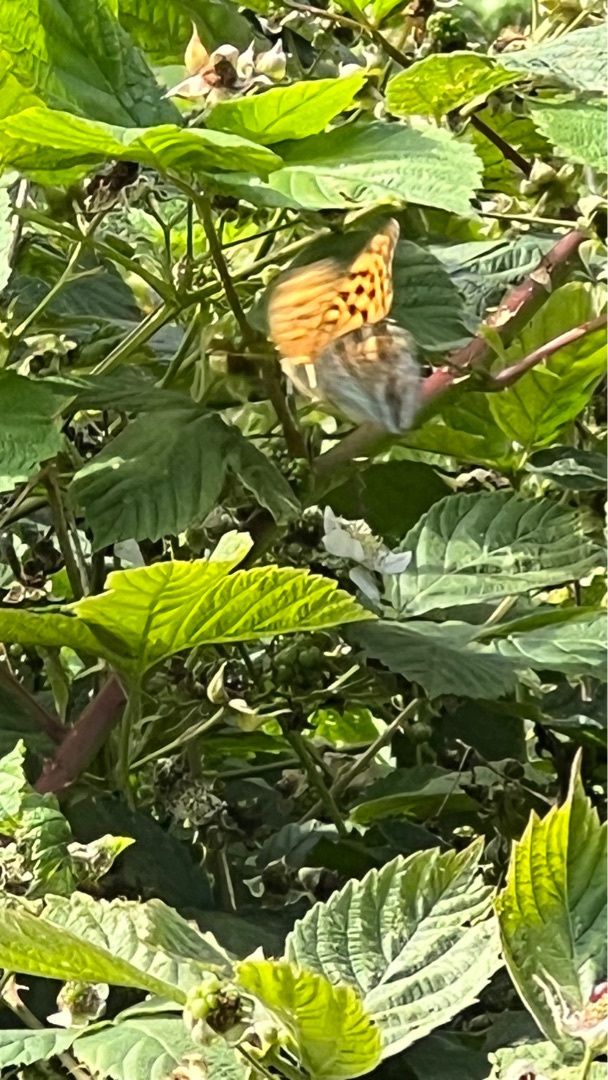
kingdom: Animalia
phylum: Arthropoda
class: Insecta
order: Lepidoptera
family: Nymphalidae
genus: Argynnis
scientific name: Argynnis paphia
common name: Kejserkåbe
